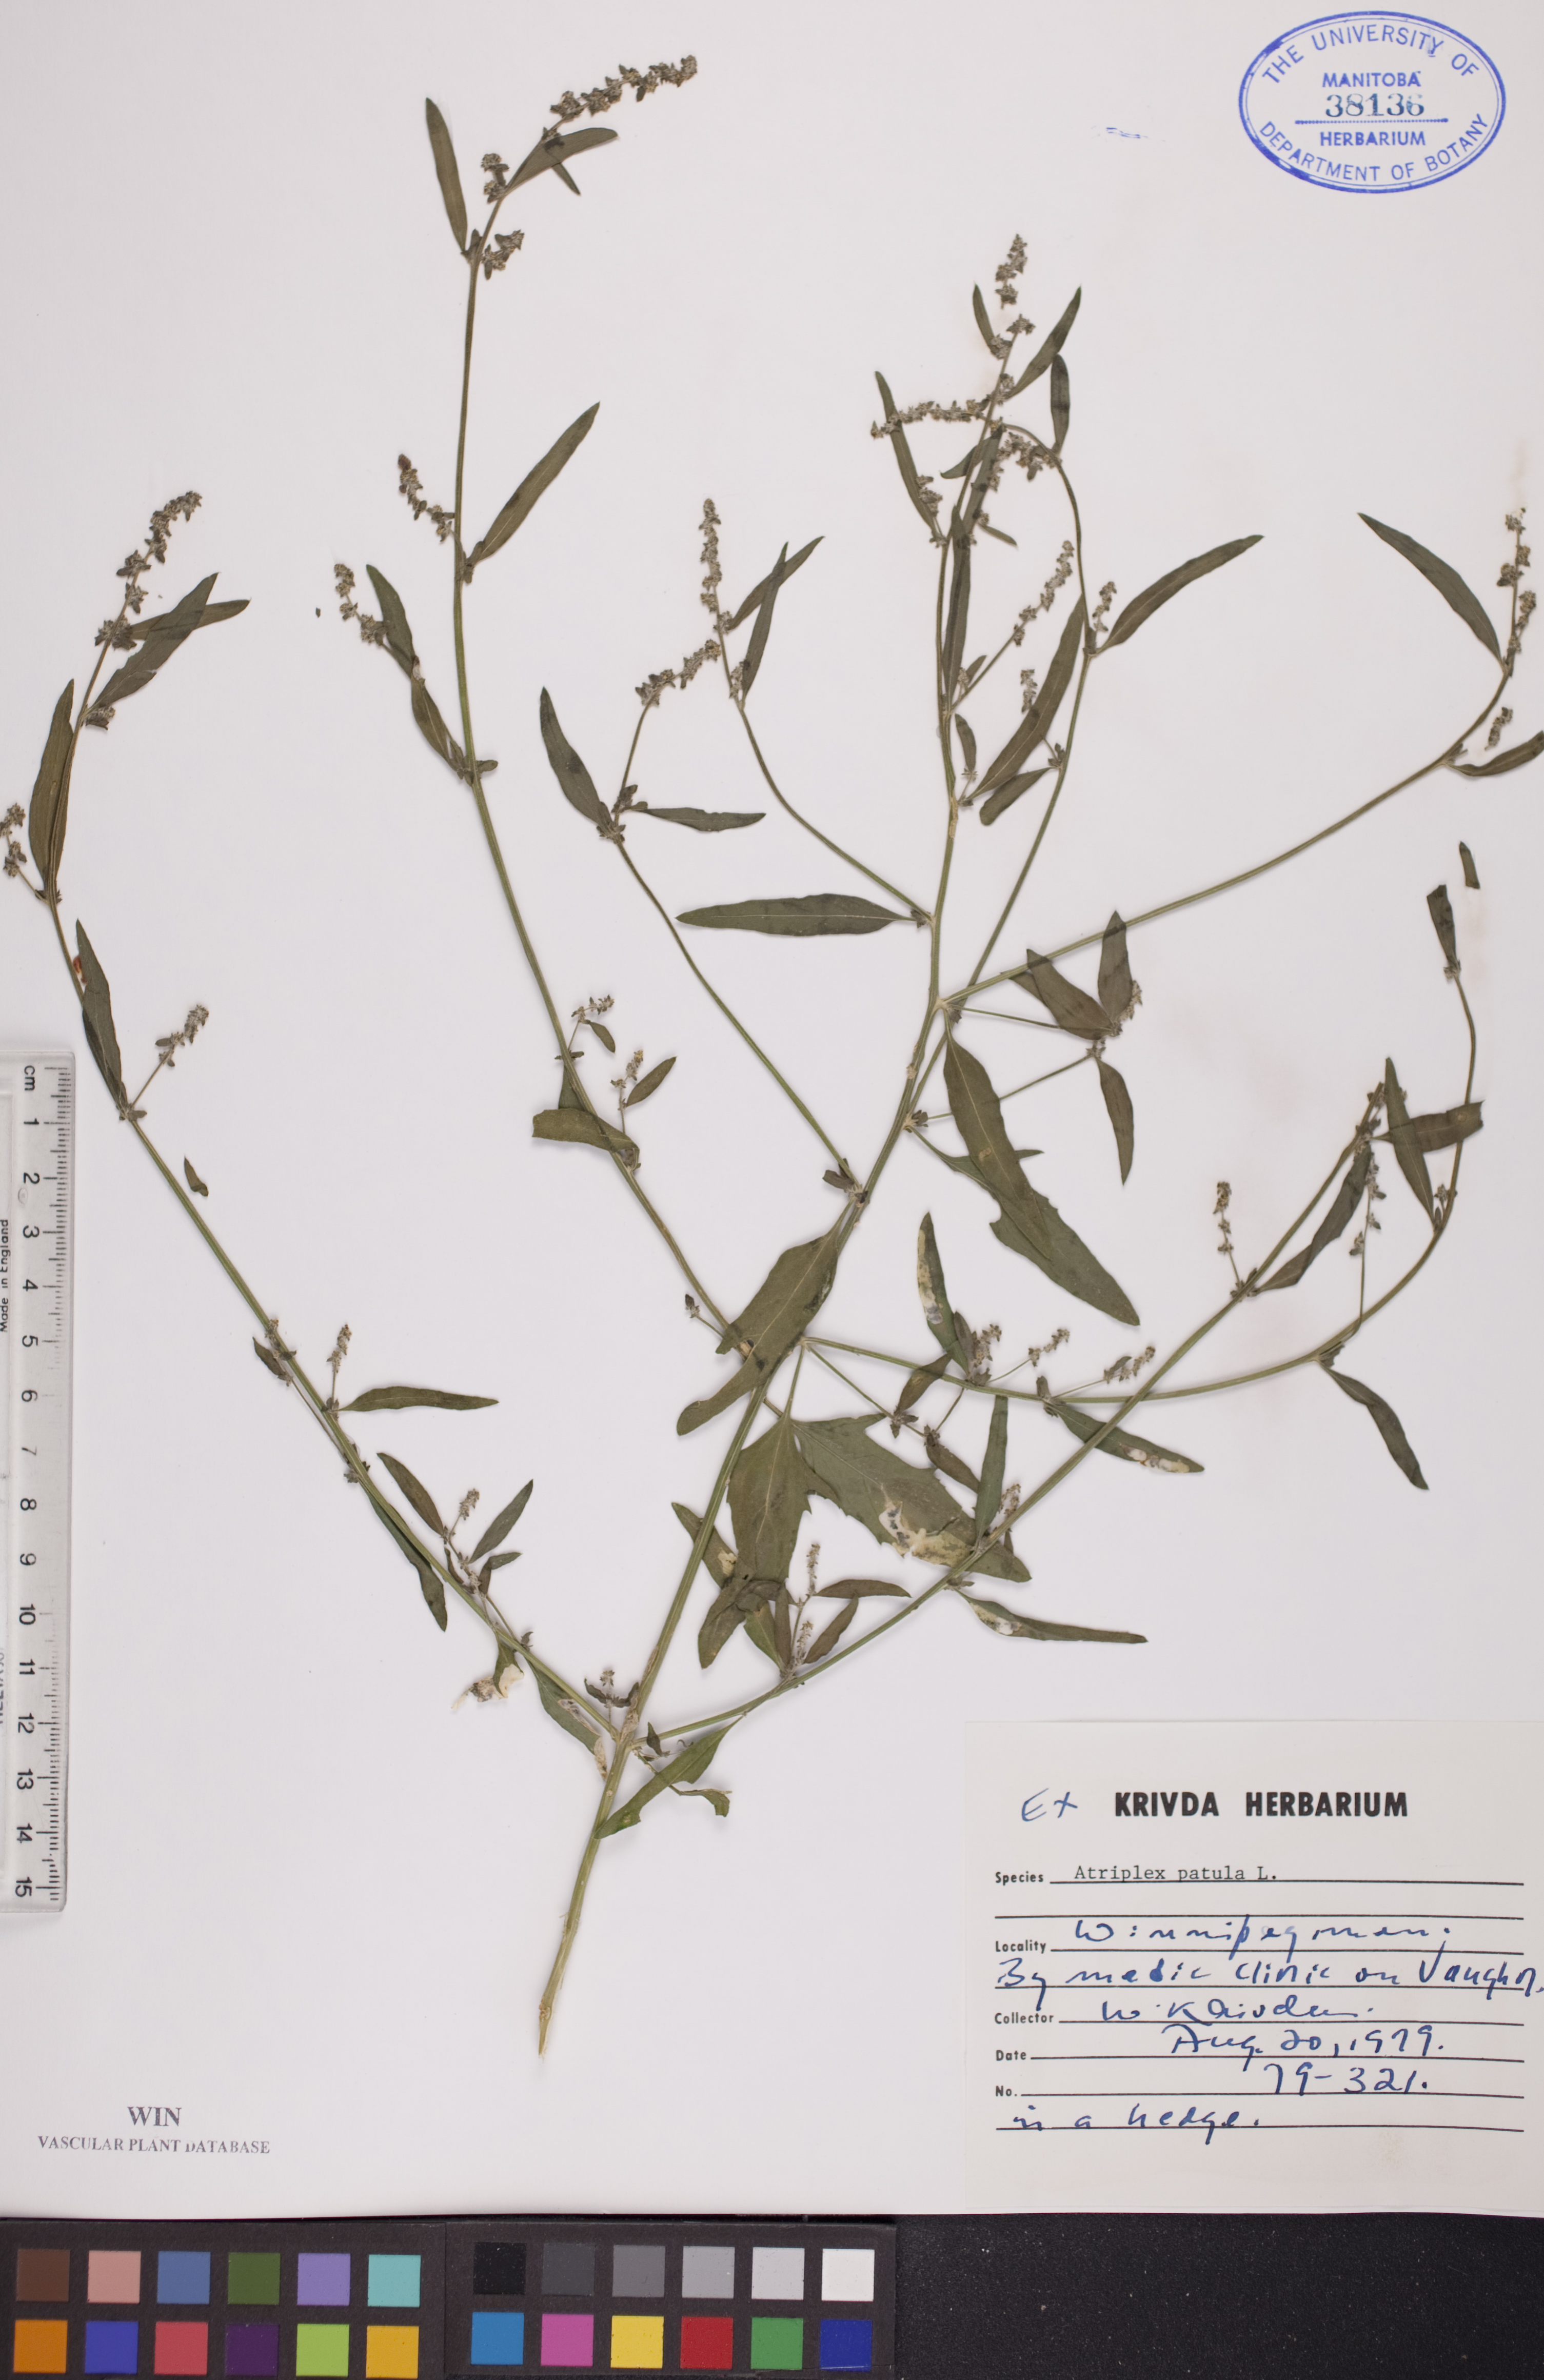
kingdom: Plantae
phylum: Tracheophyta
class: Magnoliopsida
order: Caryophyllales
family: Amaranthaceae
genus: Atriplex
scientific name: Atriplex patula
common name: Common orache
